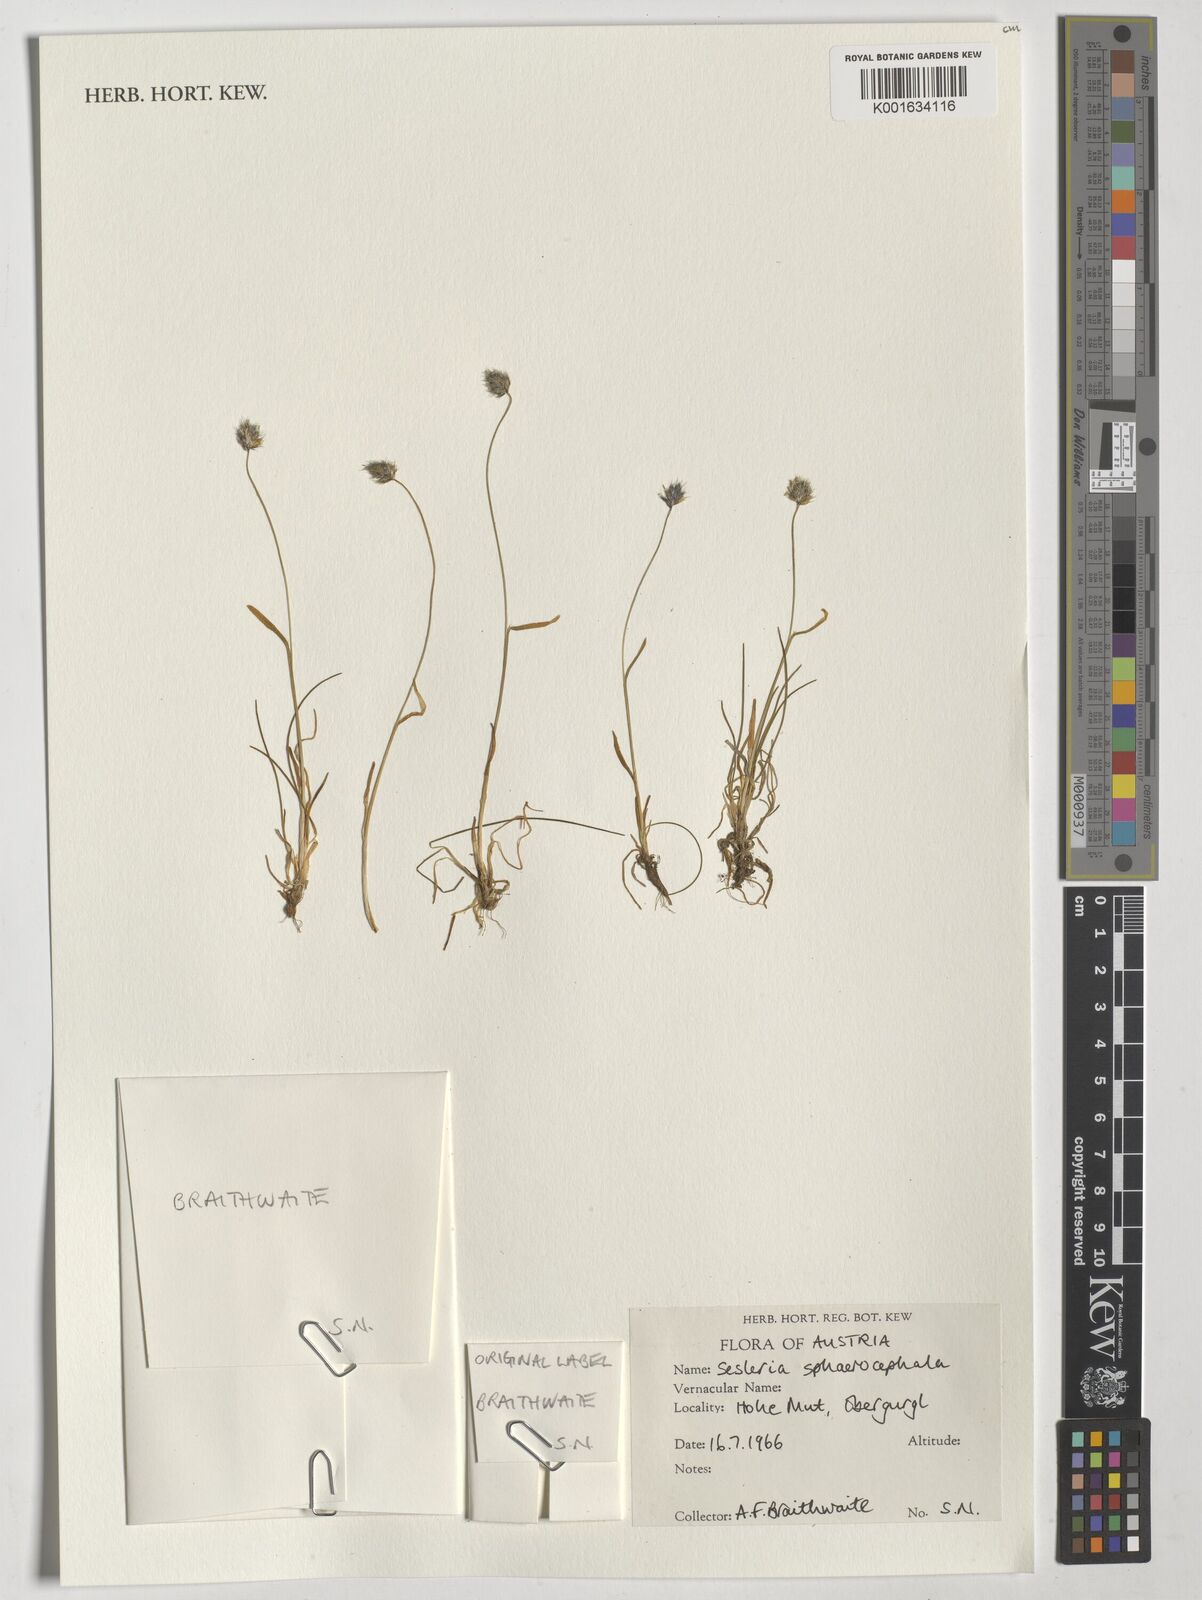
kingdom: Plantae
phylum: Tracheophyta
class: Liliopsida
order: Poales
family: Poaceae
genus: Sesleriella
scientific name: Sesleriella sphaerocephala
